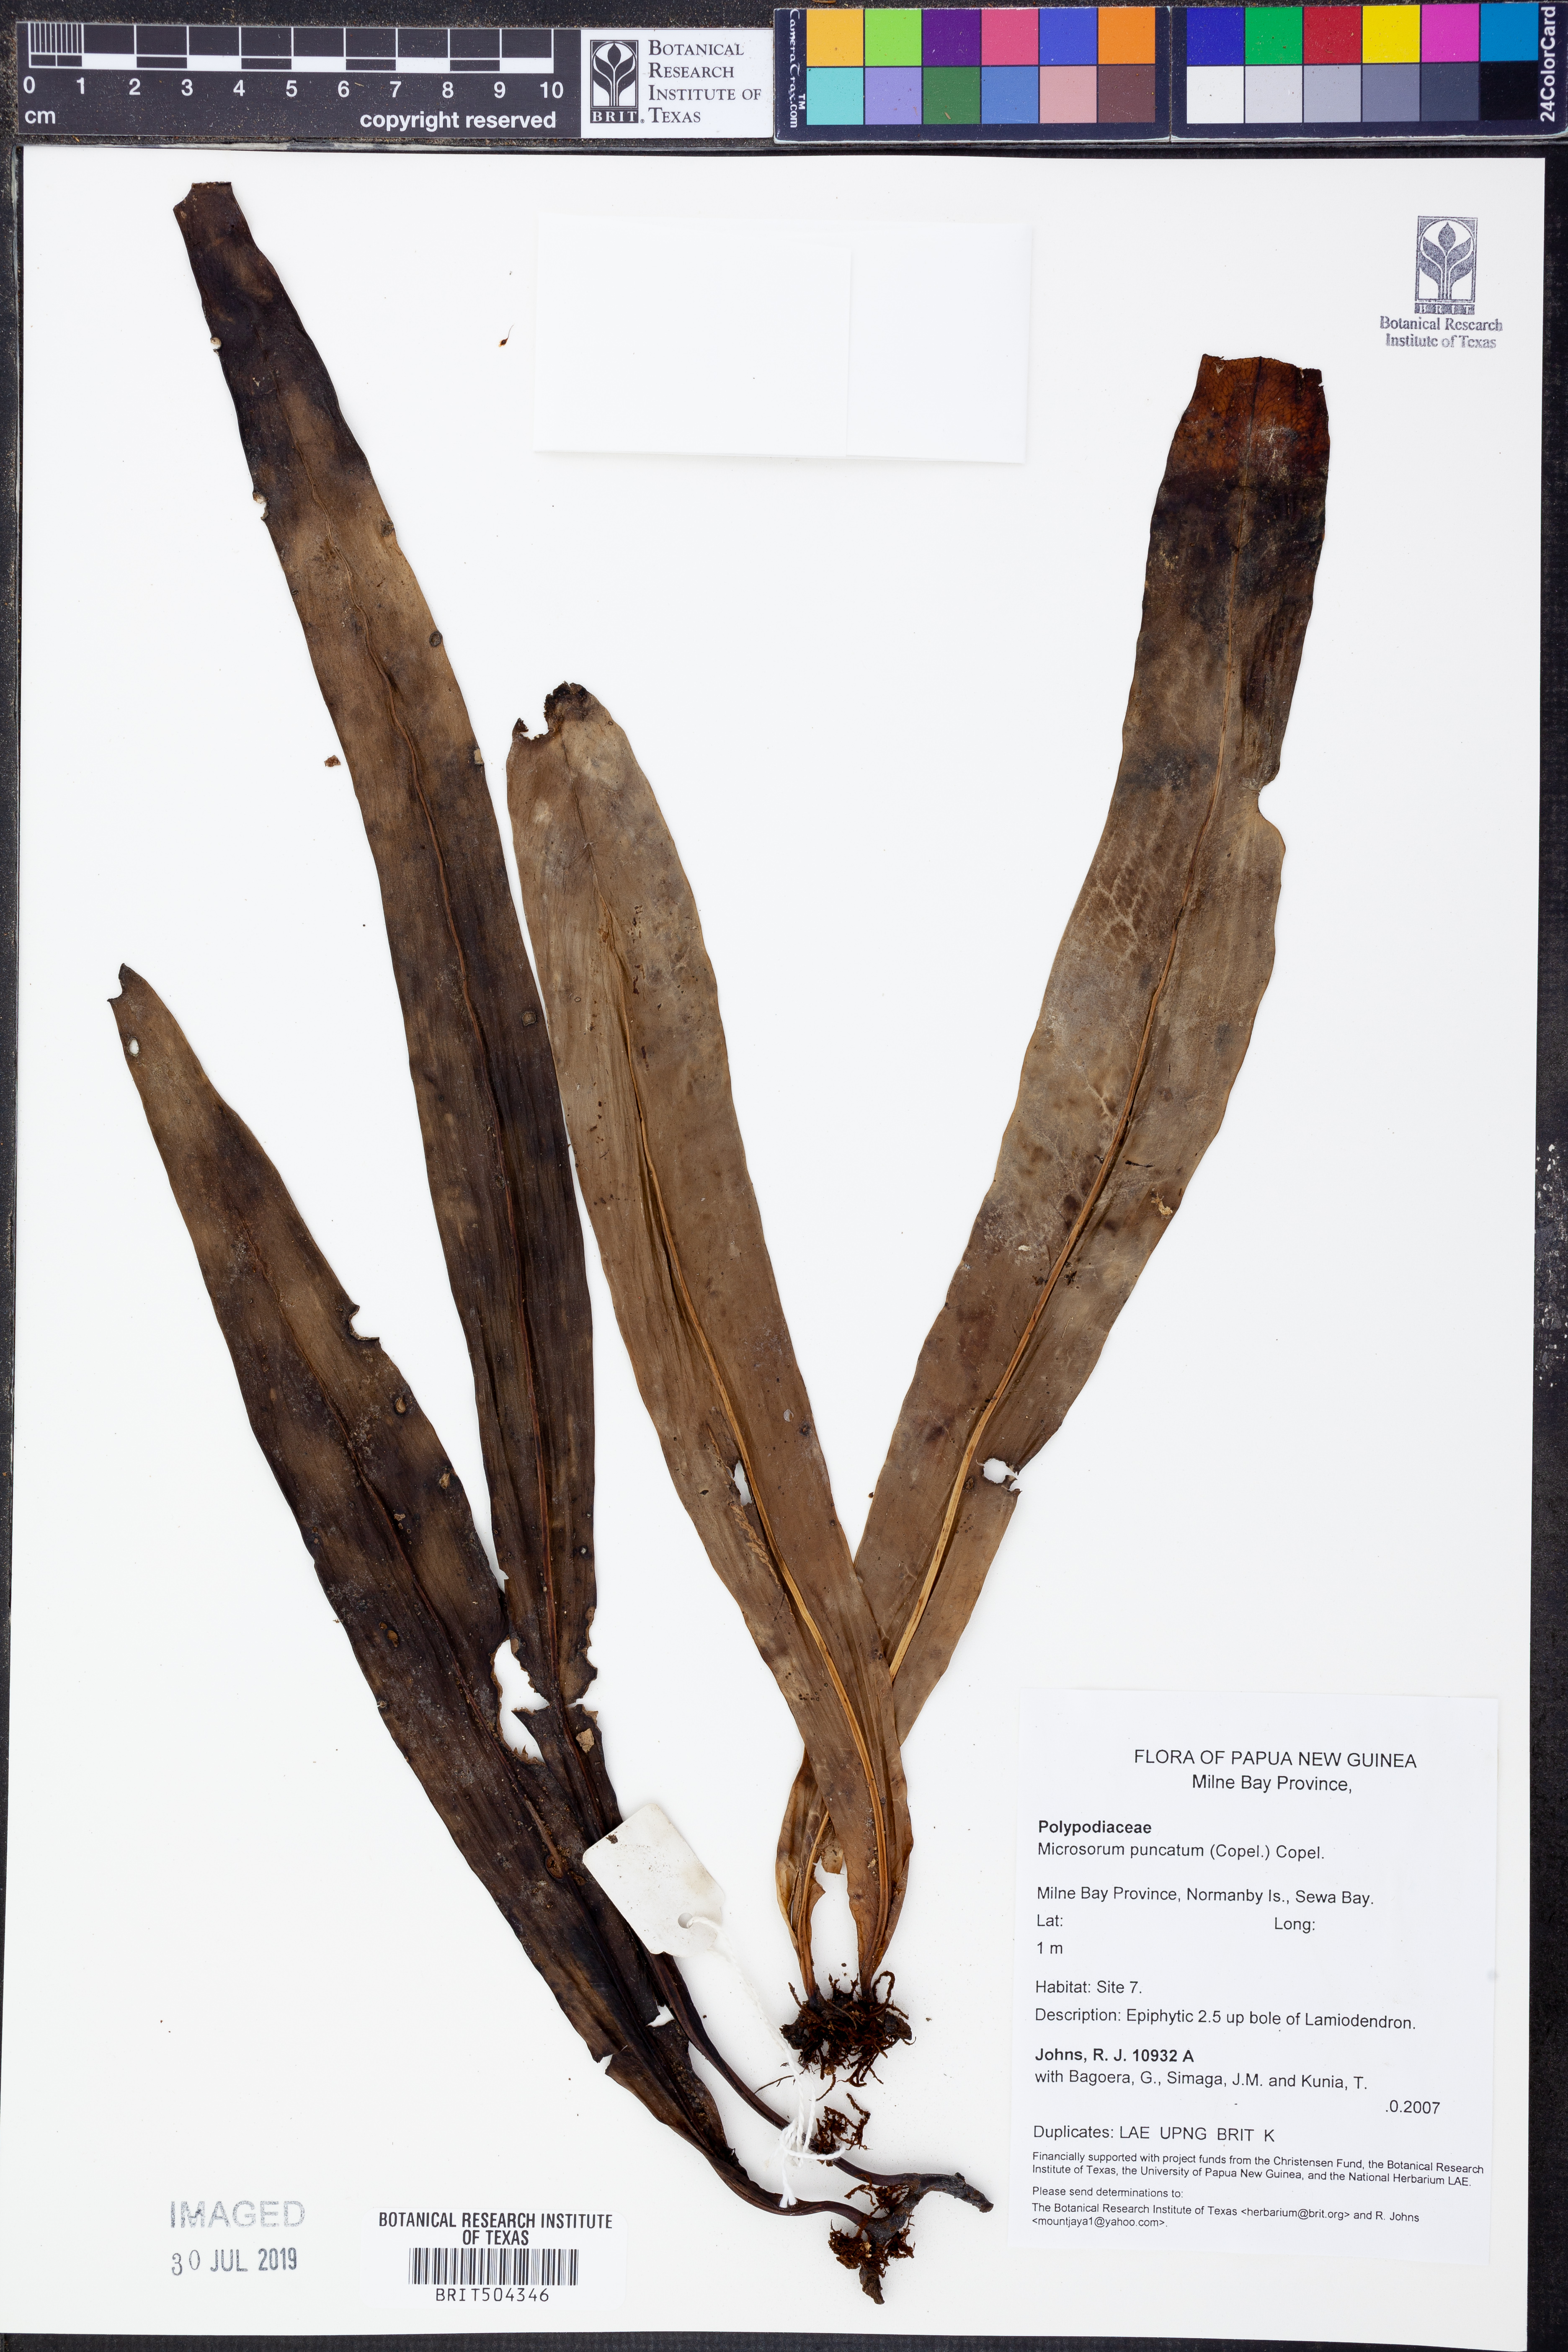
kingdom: Plantae
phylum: Tracheophyta
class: Polypodiopsida
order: Polypodiales
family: Polypodiaceae
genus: Microsorum
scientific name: Microsorum punctatum
